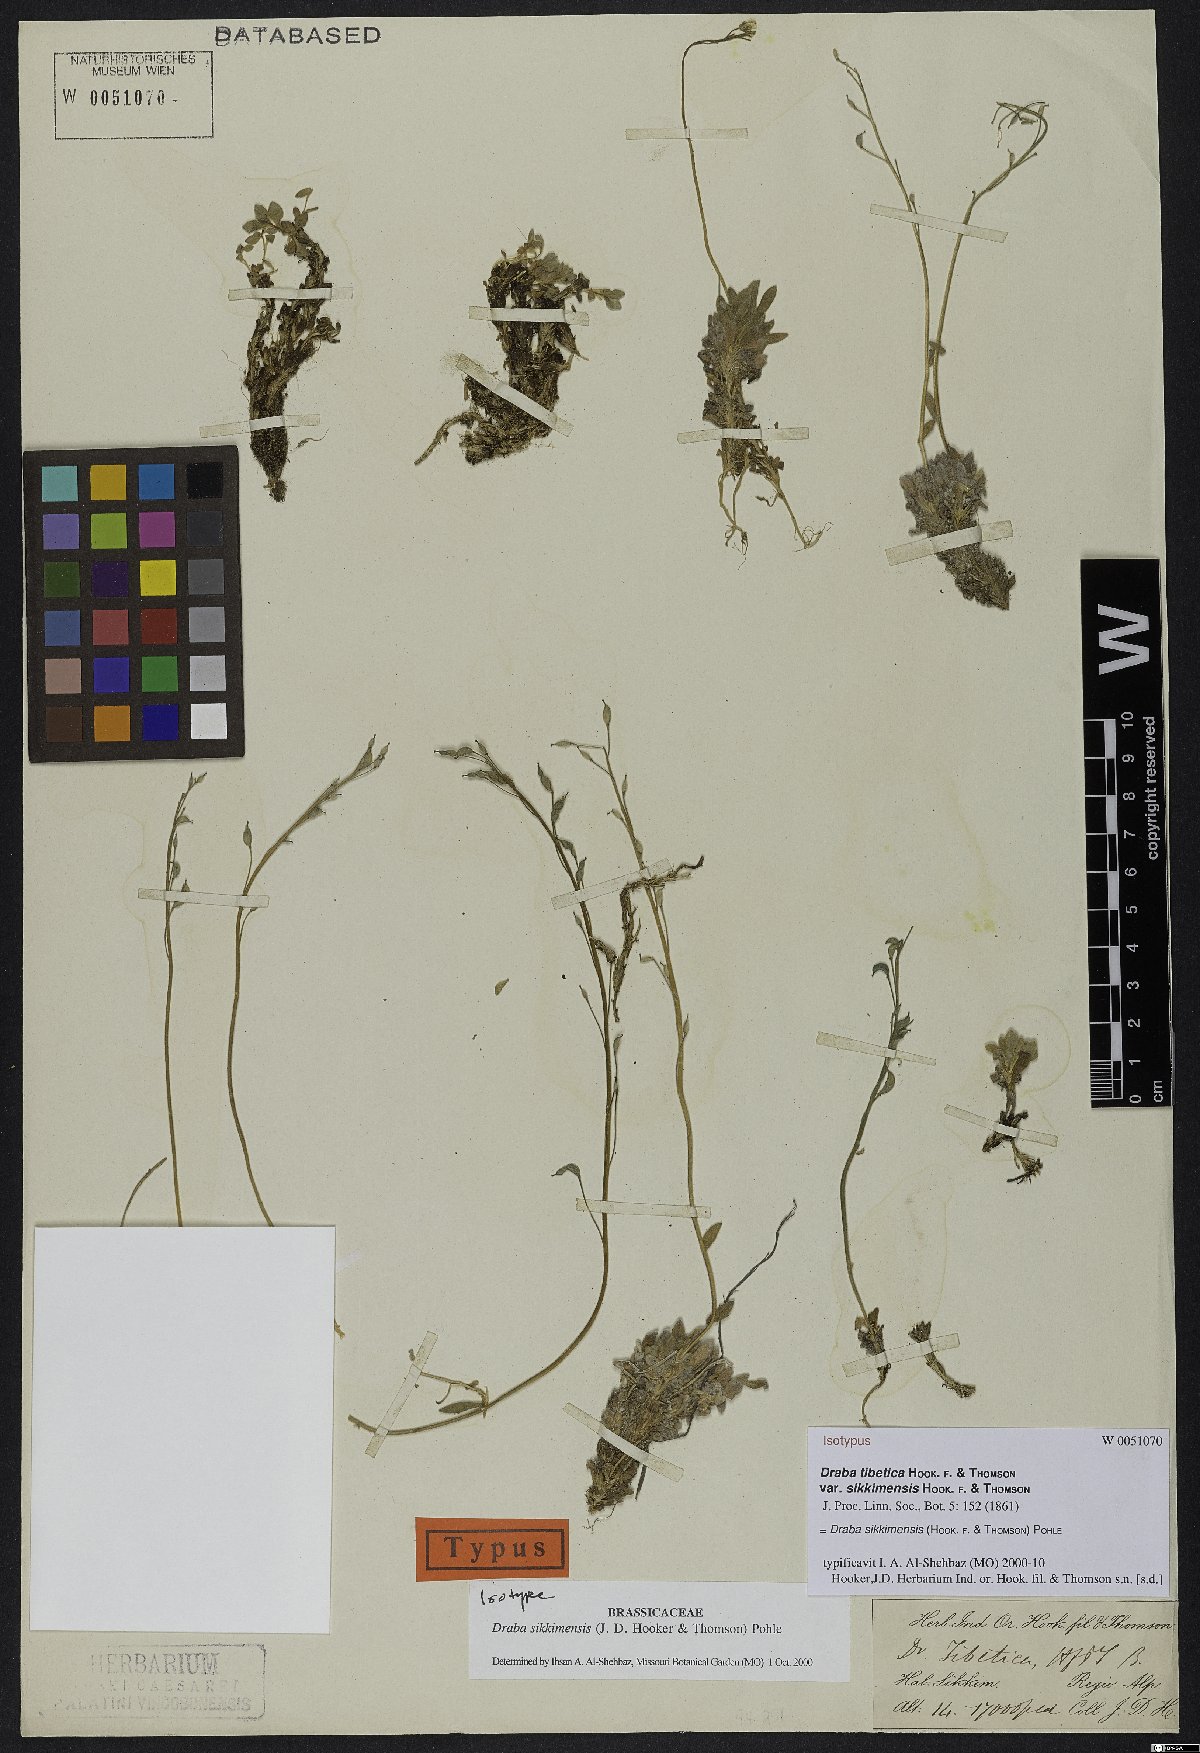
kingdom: Plantae
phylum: Tracheophyta
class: Magnoliopsida
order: Brassicales
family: Brassicaceae
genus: Draba
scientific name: Draba sikkimensis
